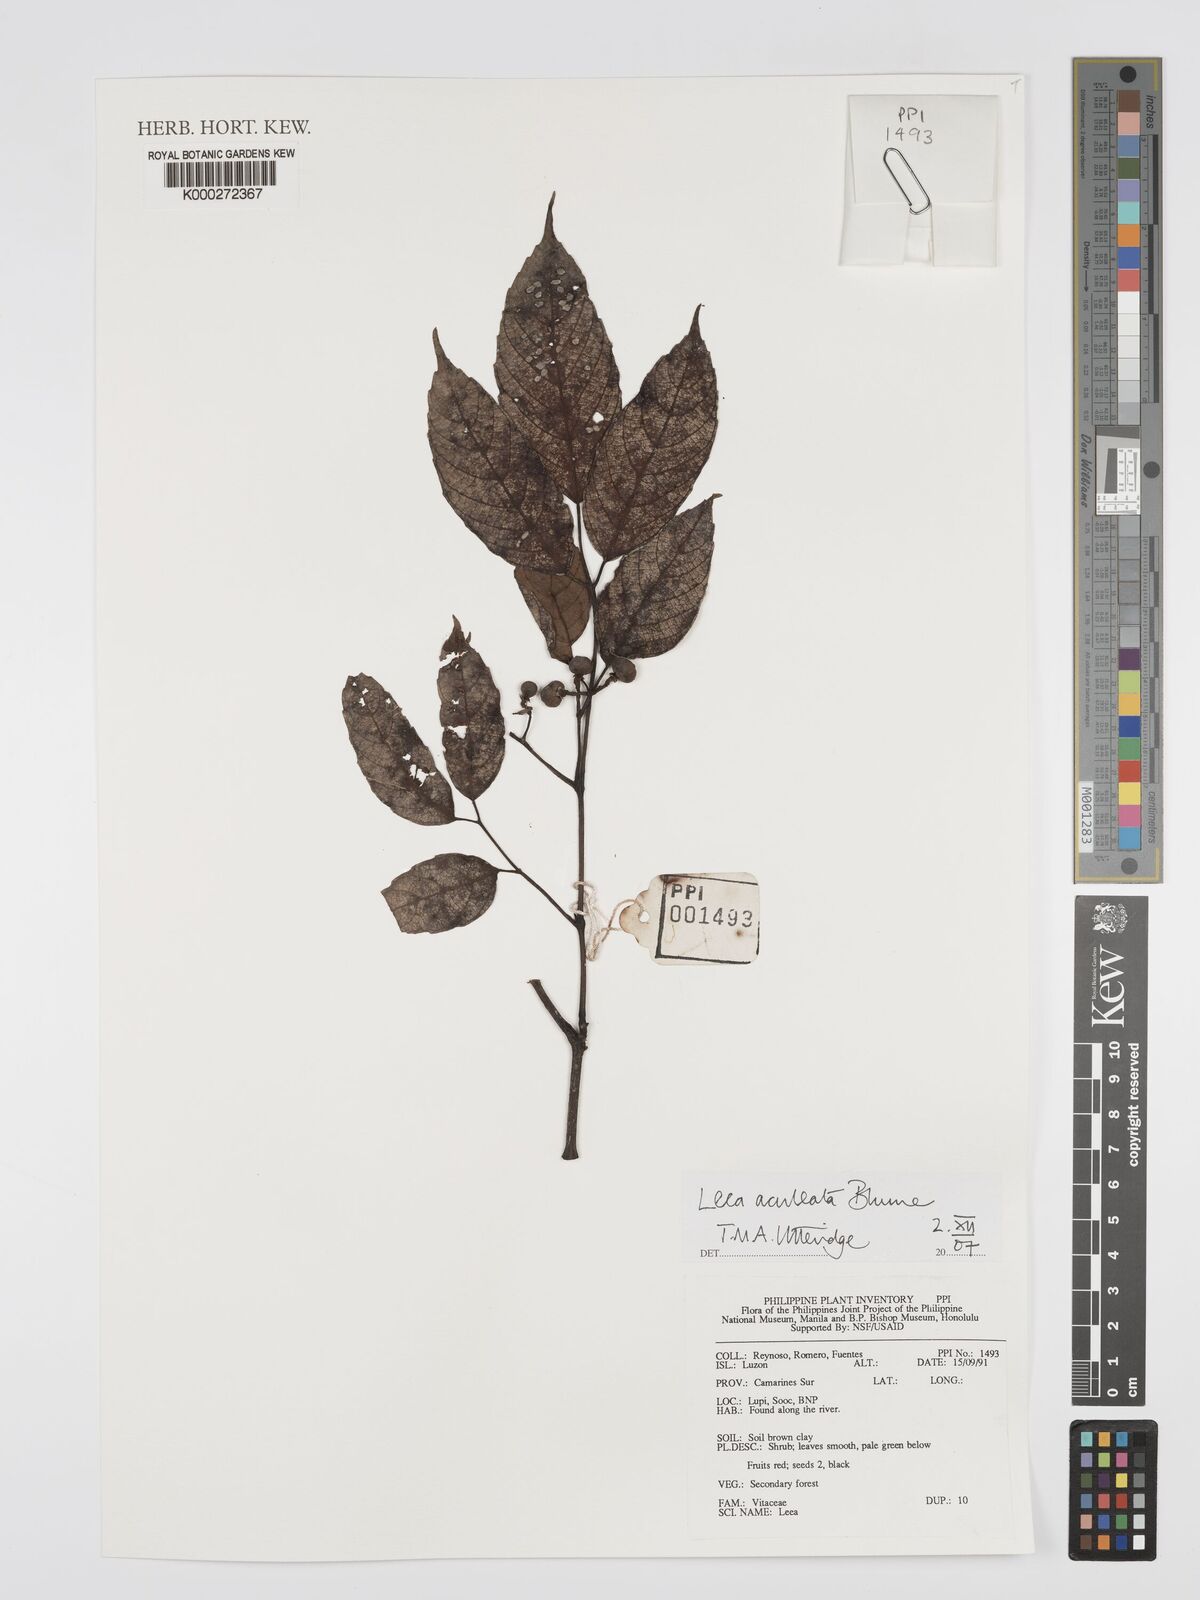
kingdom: Plantae
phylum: Tracheophyta
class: Magnoliopsida
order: Vitales
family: Vitaceae
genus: Leea
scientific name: Leea aculeata
